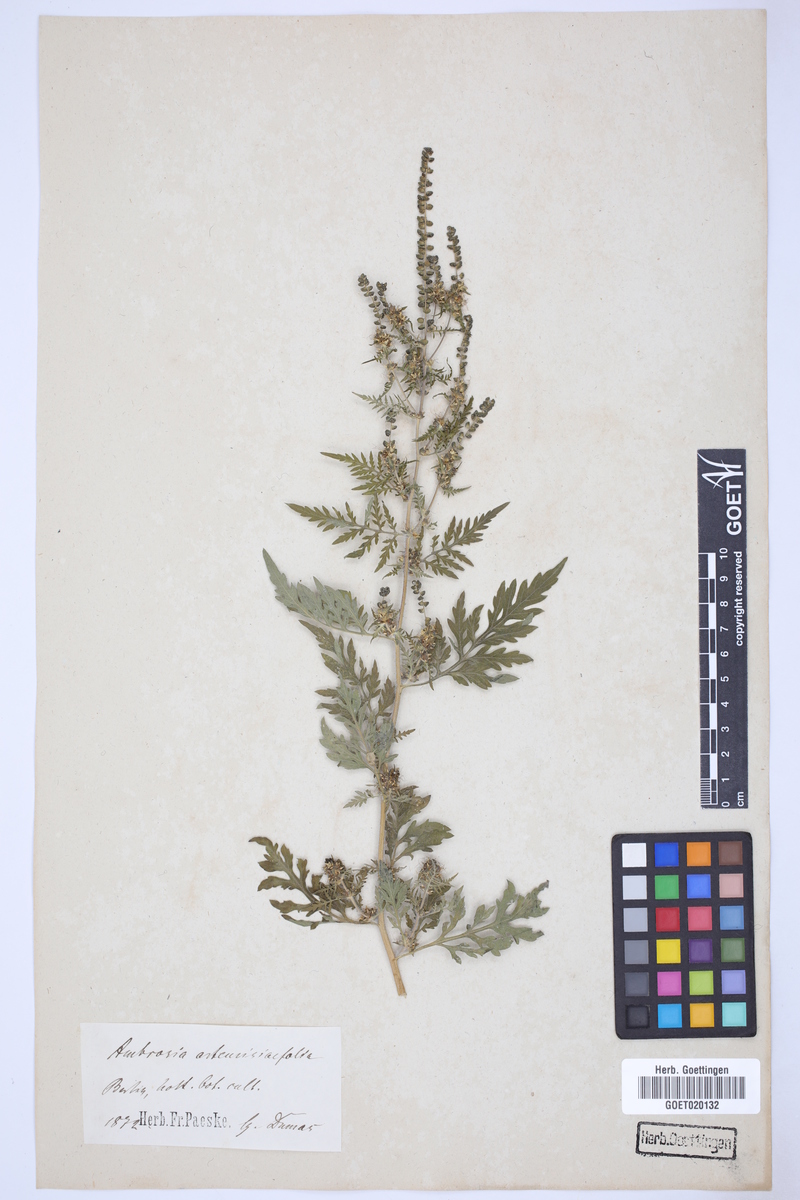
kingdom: Plantae
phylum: Tracheophyta
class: Magnoliopsida
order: Asterales
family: Asteraceae
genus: Ambrosia
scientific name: Ambrosia artemisiifolia
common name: Annual ragweed
